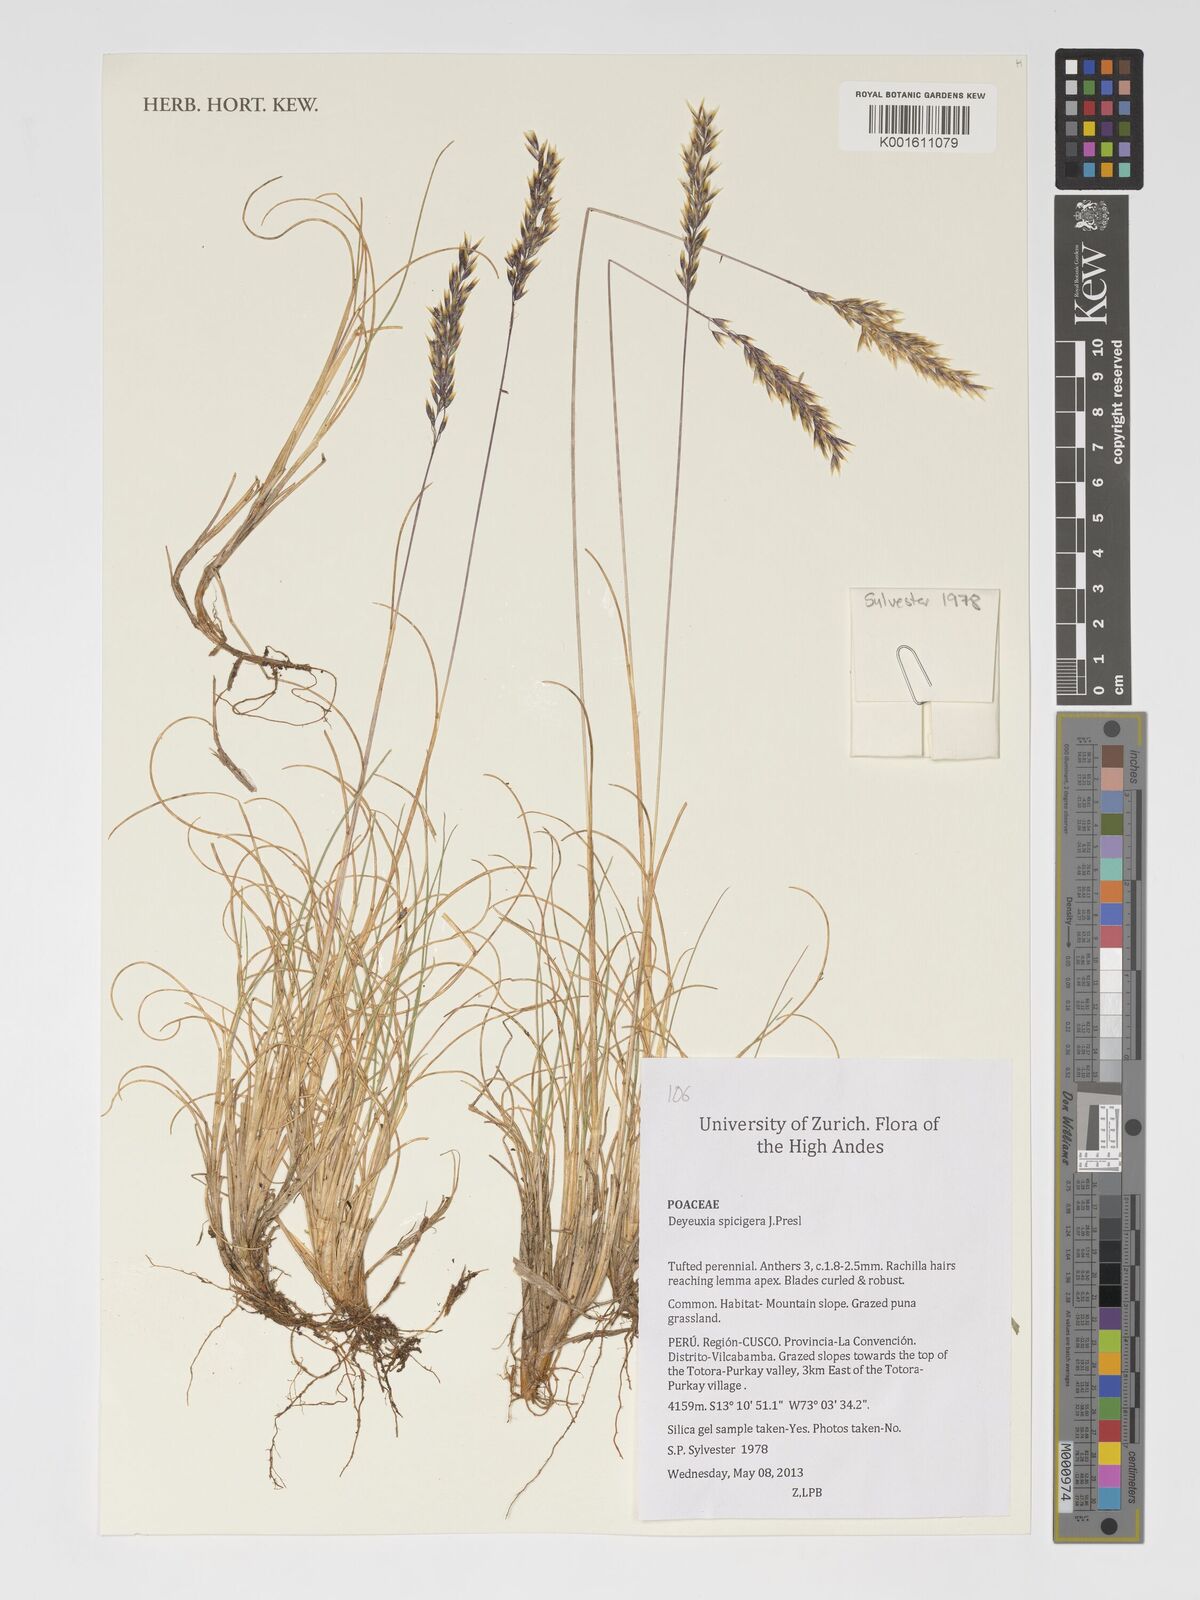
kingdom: Plantae
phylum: Tracheophyta
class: Liliopsida
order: Poales
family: Poaceae
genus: Cinnagrostis
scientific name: Cinnagrostis spicigera
